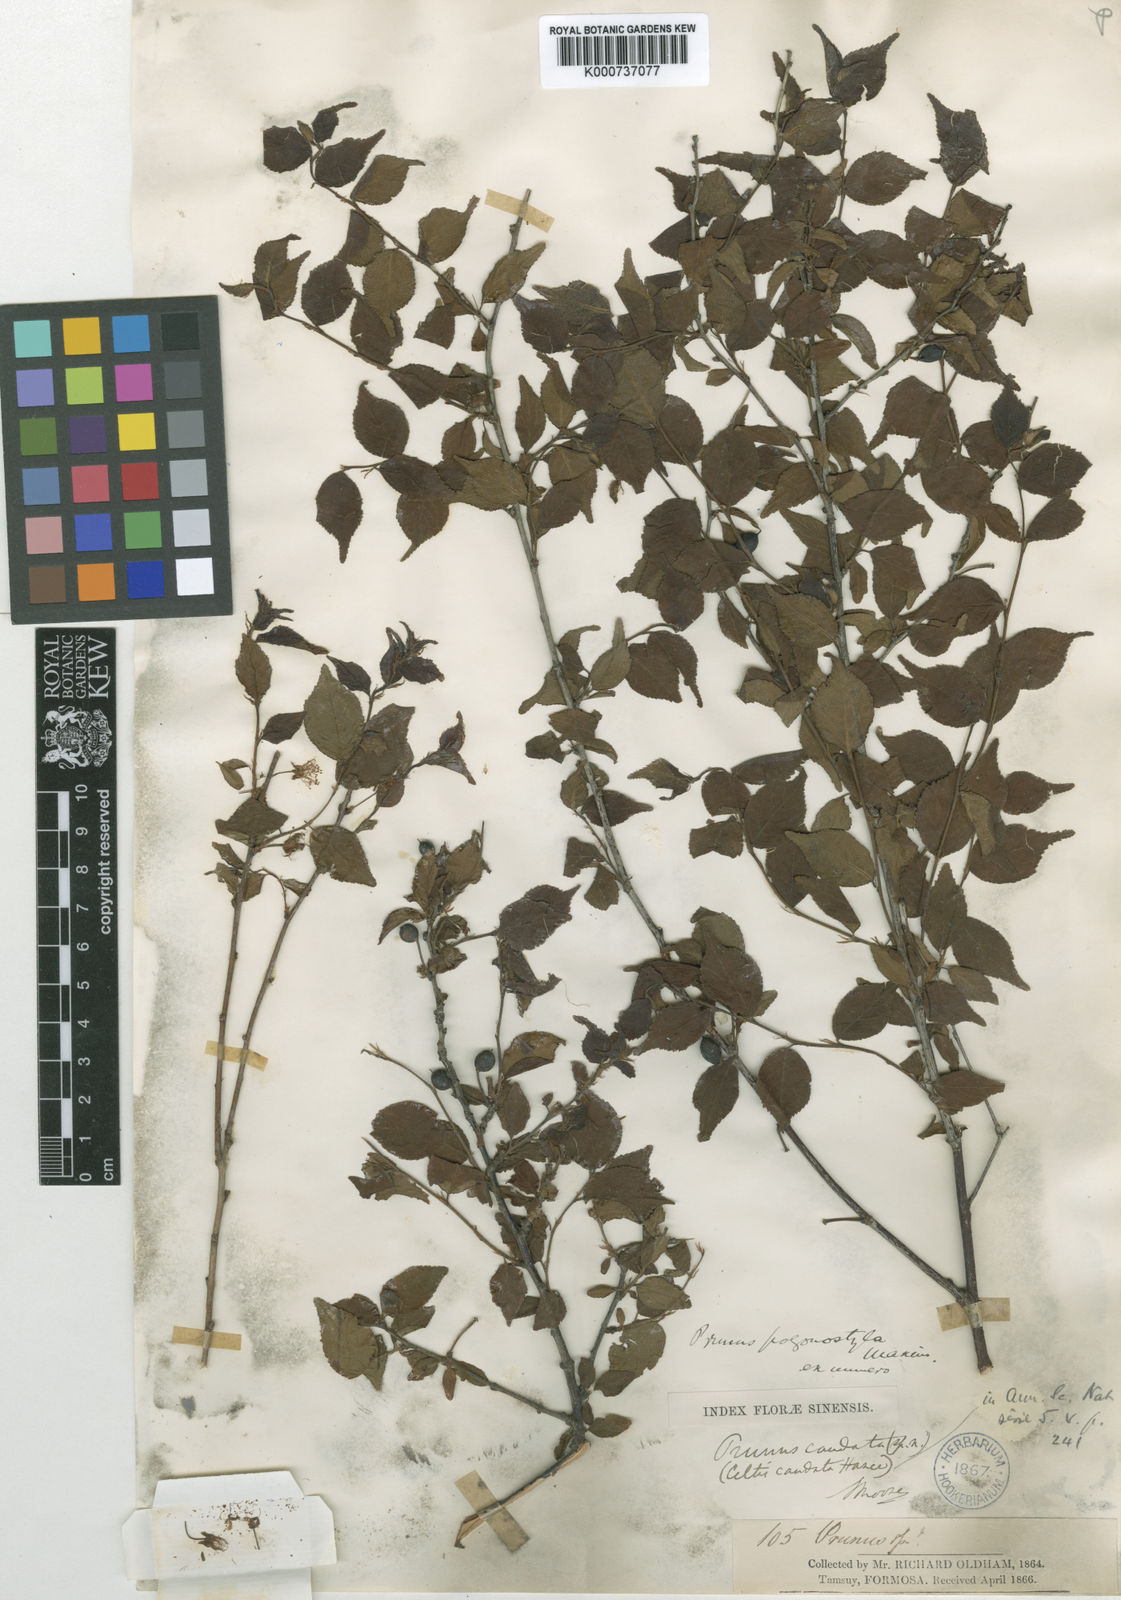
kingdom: Plantae
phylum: Tracheophyta
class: Magnoliopsida
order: Rosales
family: Rosaceae
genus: Prunus
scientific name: Prunus pogonostyla
